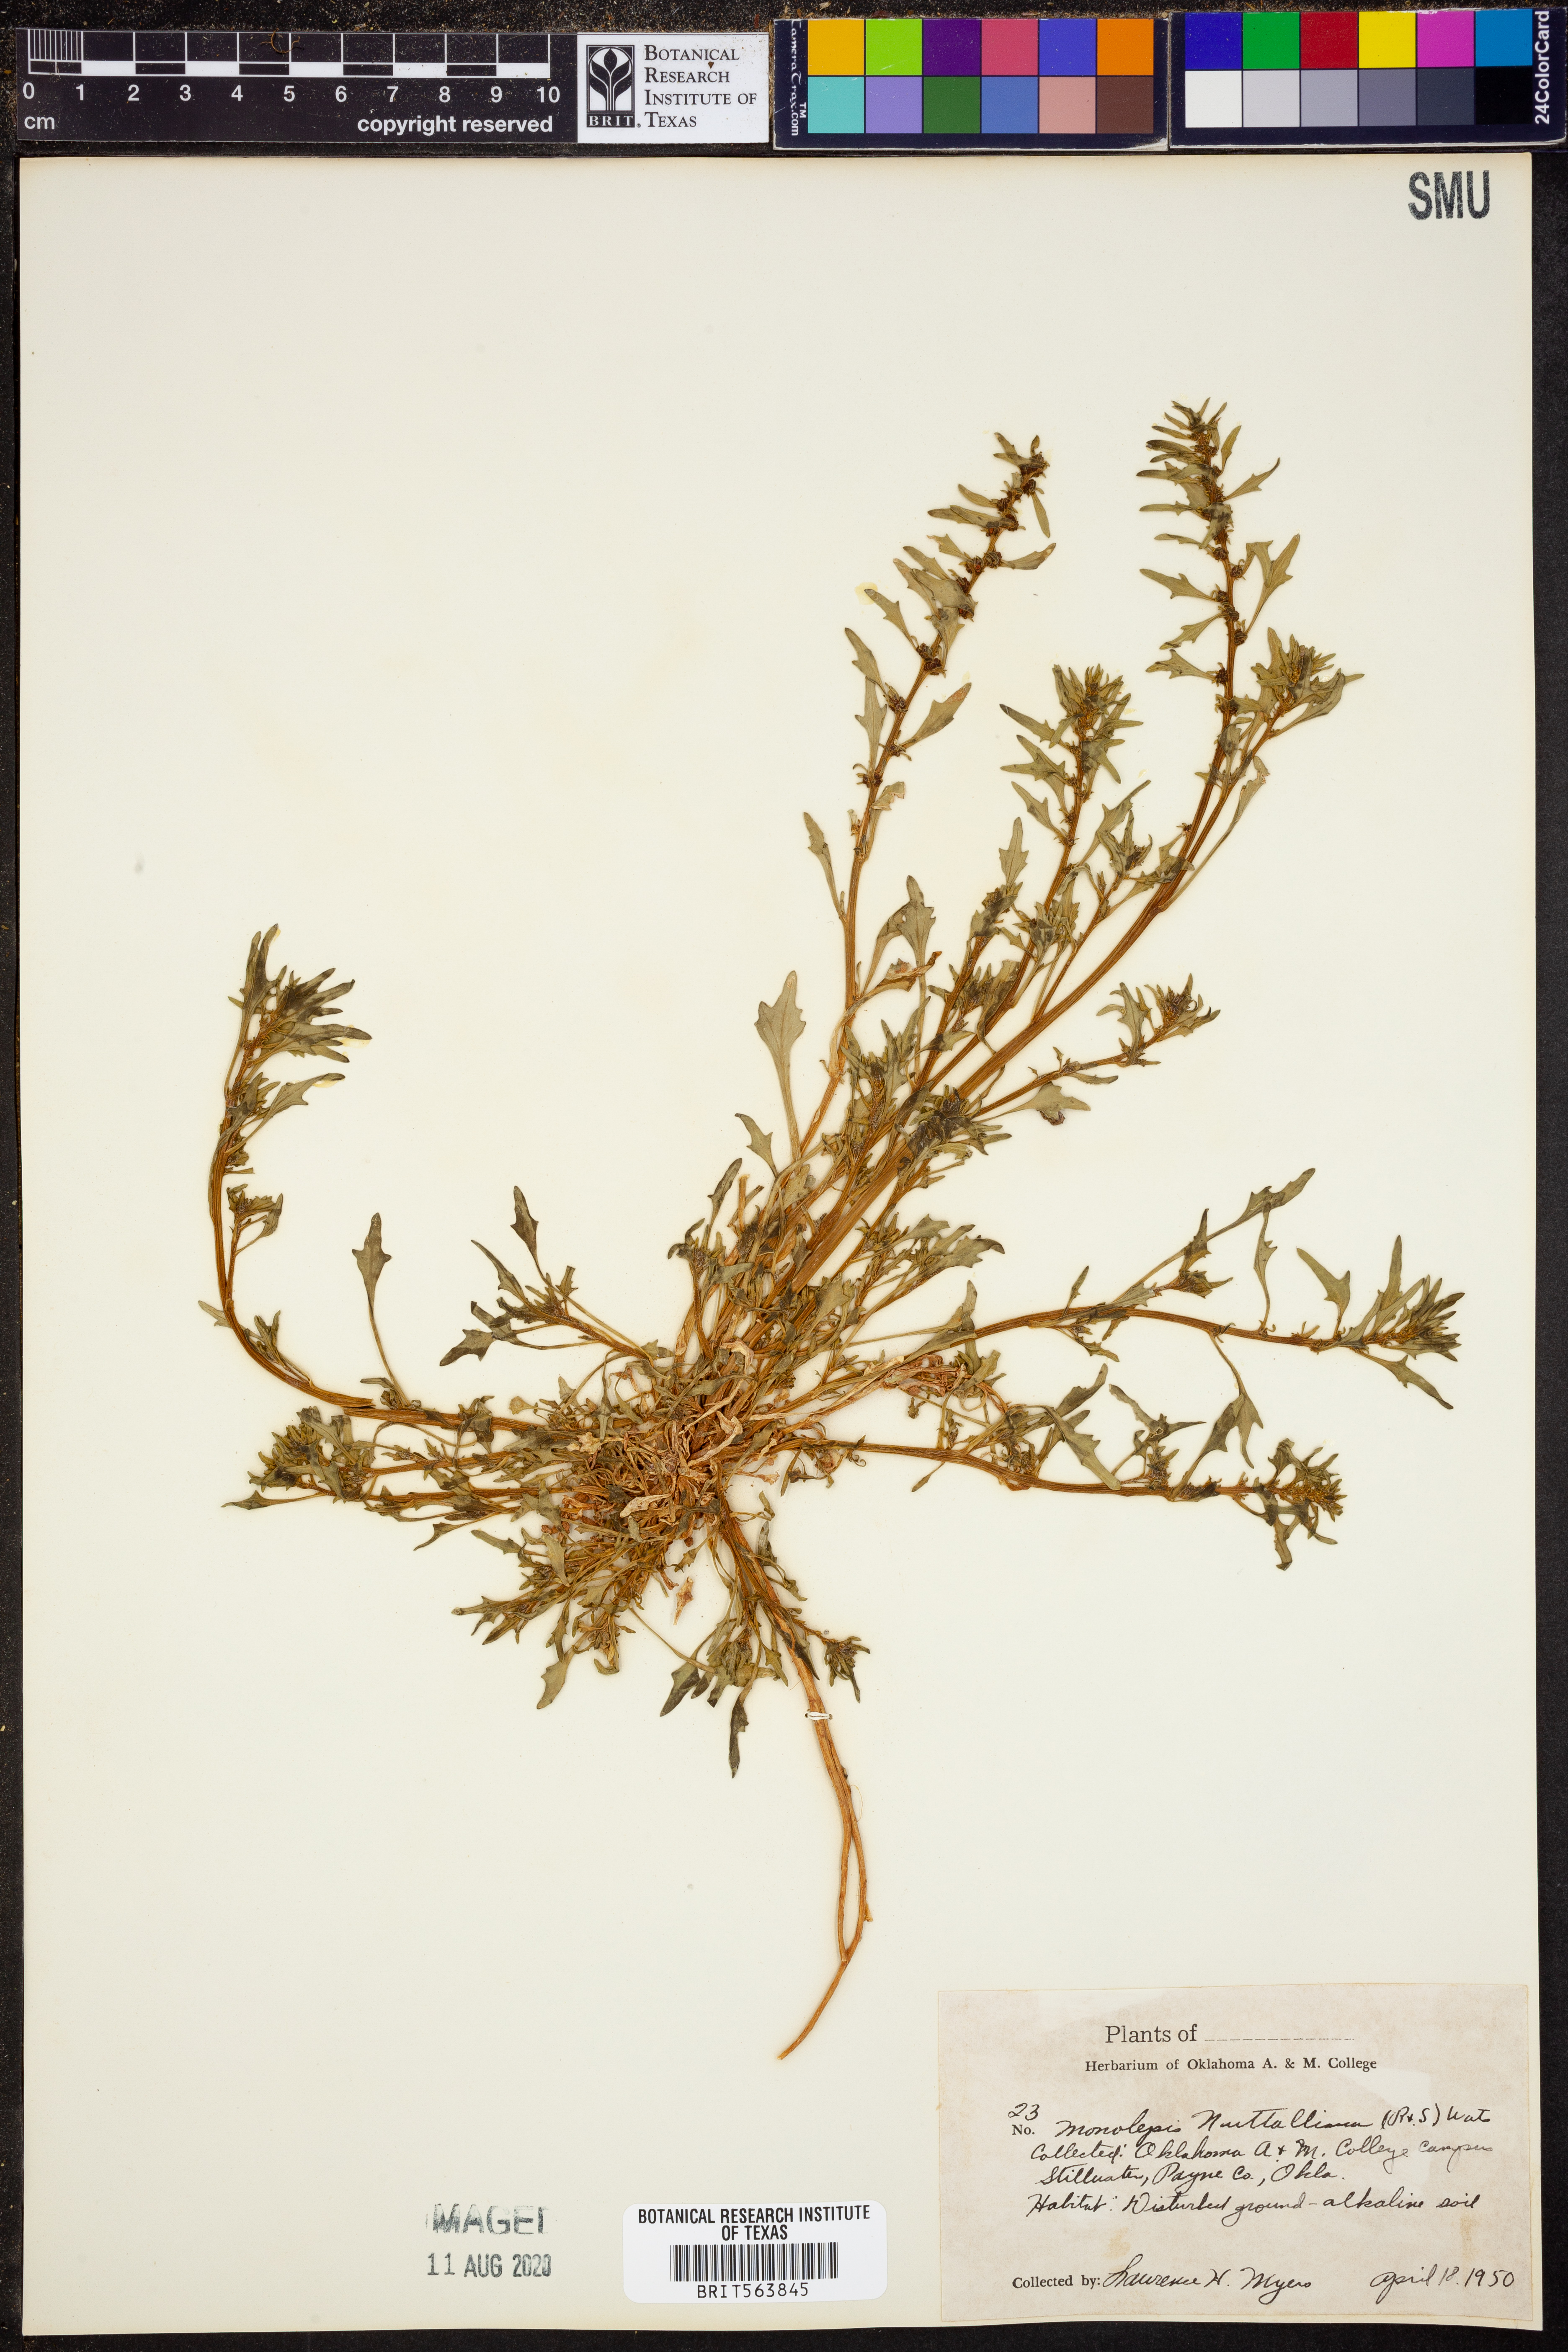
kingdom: Plantae
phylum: Tracheophyta
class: Magnoliopsida
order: Caryophyllales
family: Amaranthaceae
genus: Blitum
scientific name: Blitum nuttallianum
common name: Poverty-weed
